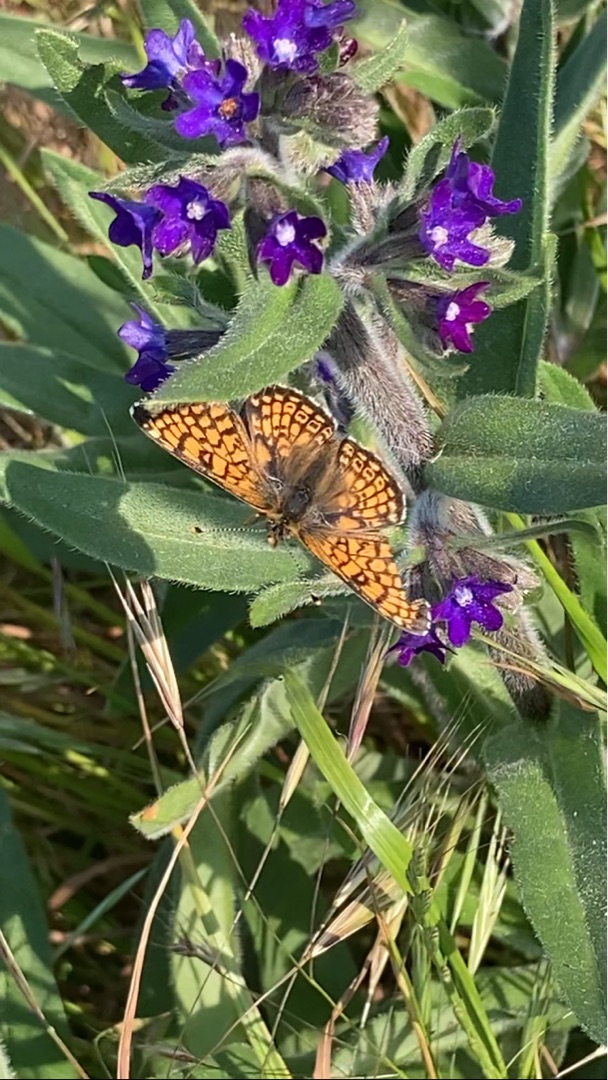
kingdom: Animalia
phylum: Arthropoda
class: Insecta
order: Lepidoptera
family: Nymphalidae
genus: Melitaea
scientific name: Melitaea cinxia
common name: Okkergul pletvinge
